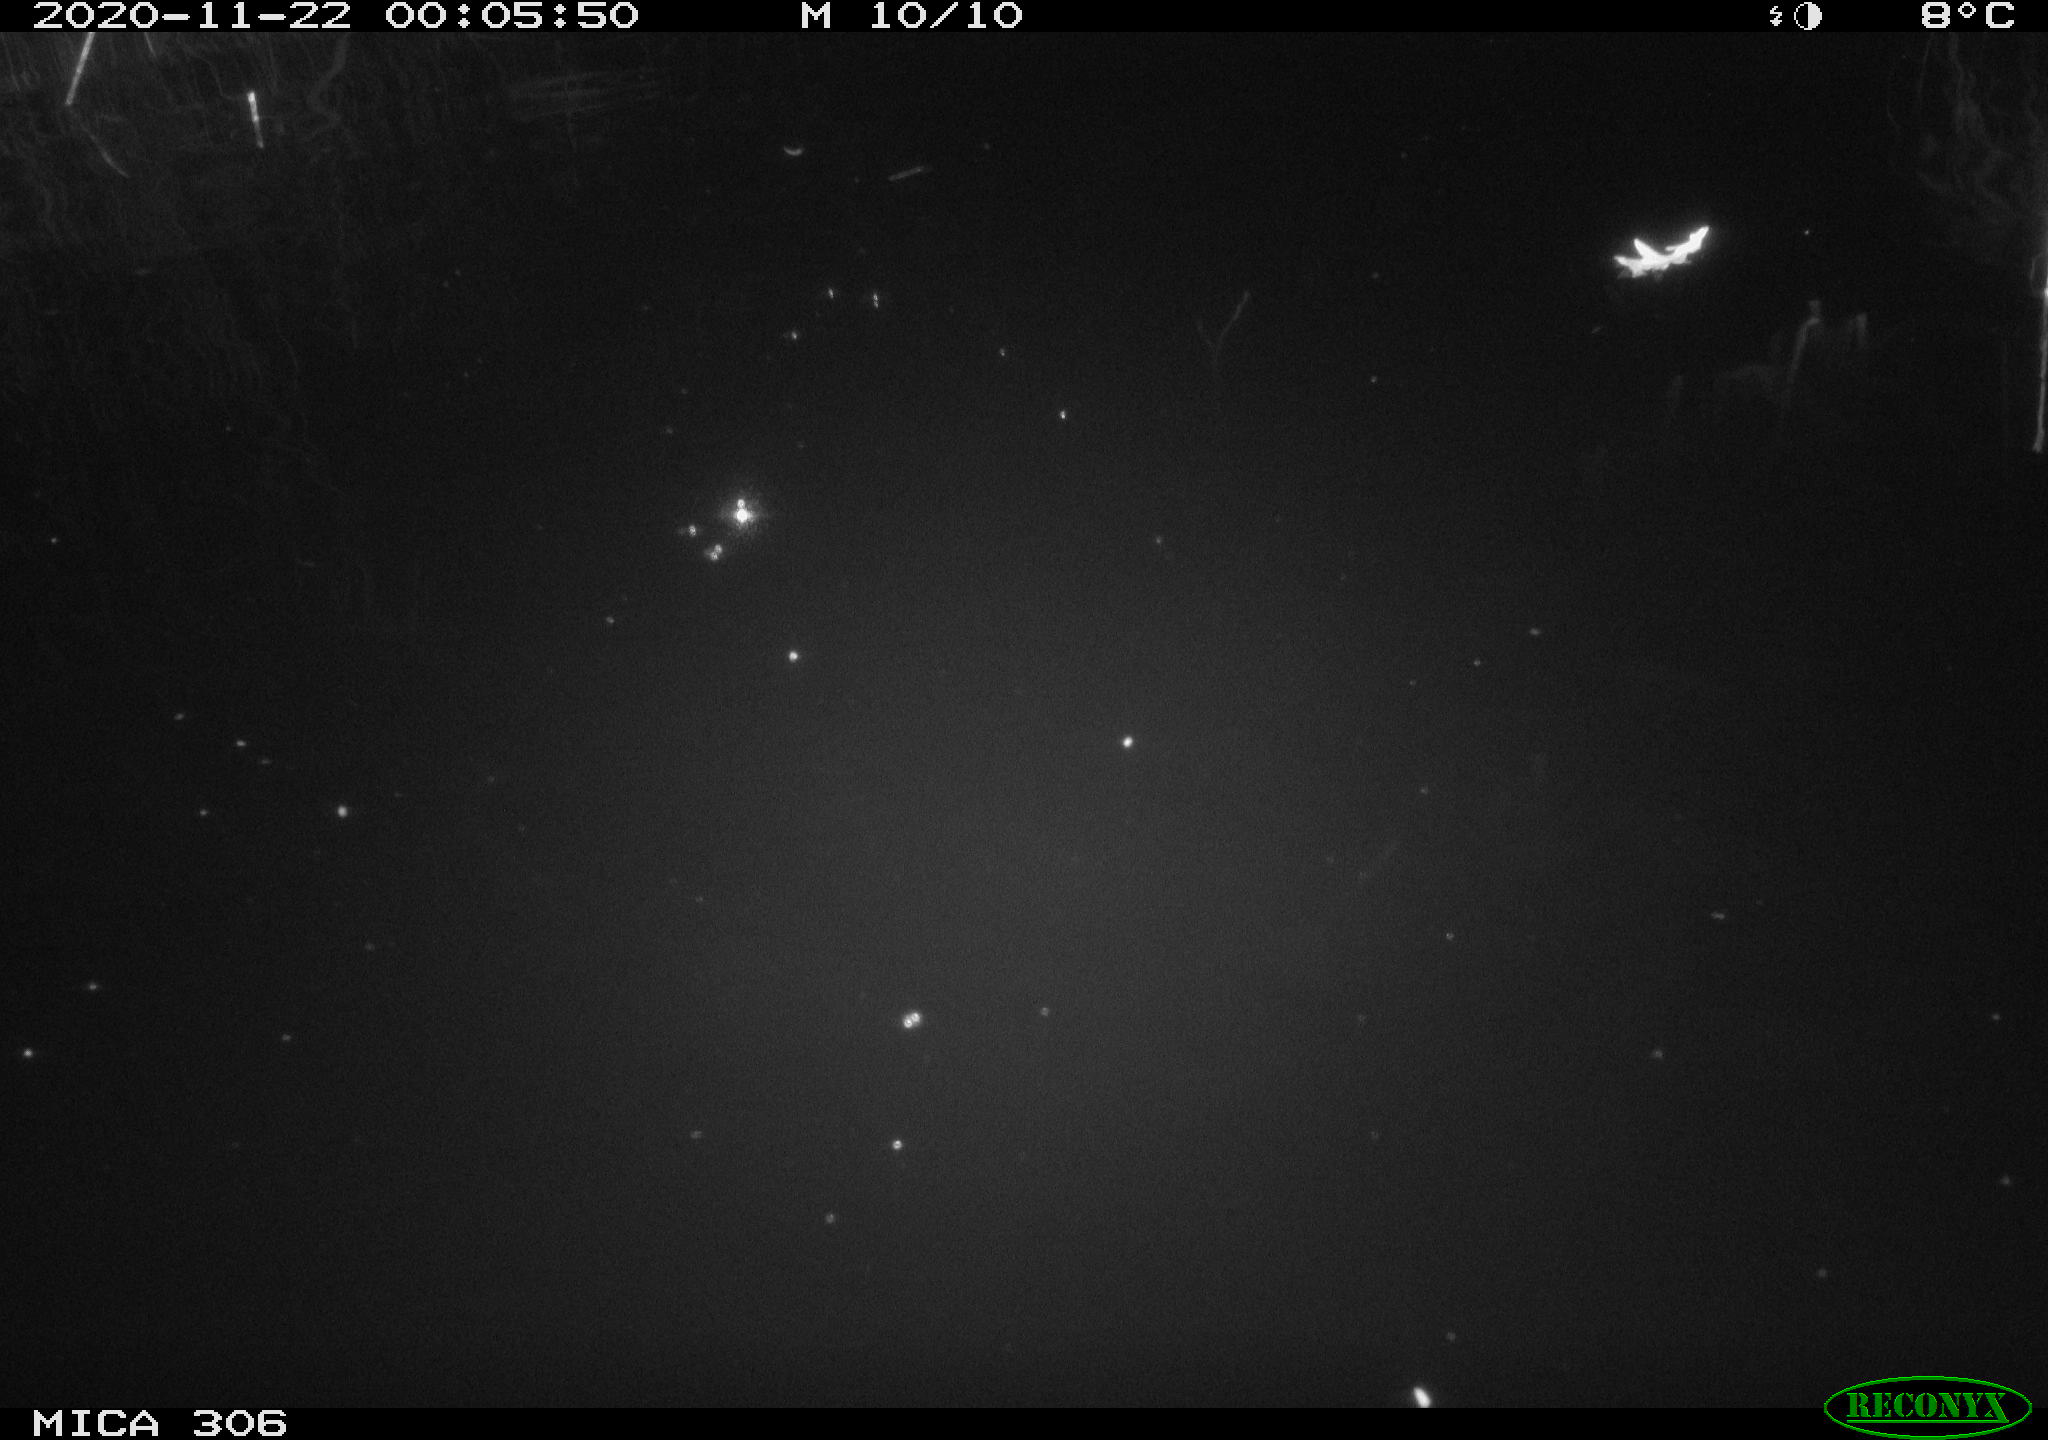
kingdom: Animalia
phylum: Chordata
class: Mammalia
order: Rodentia
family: Cricetidae
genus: Ondatra
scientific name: Ondatra zibethicus
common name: Muskrat
